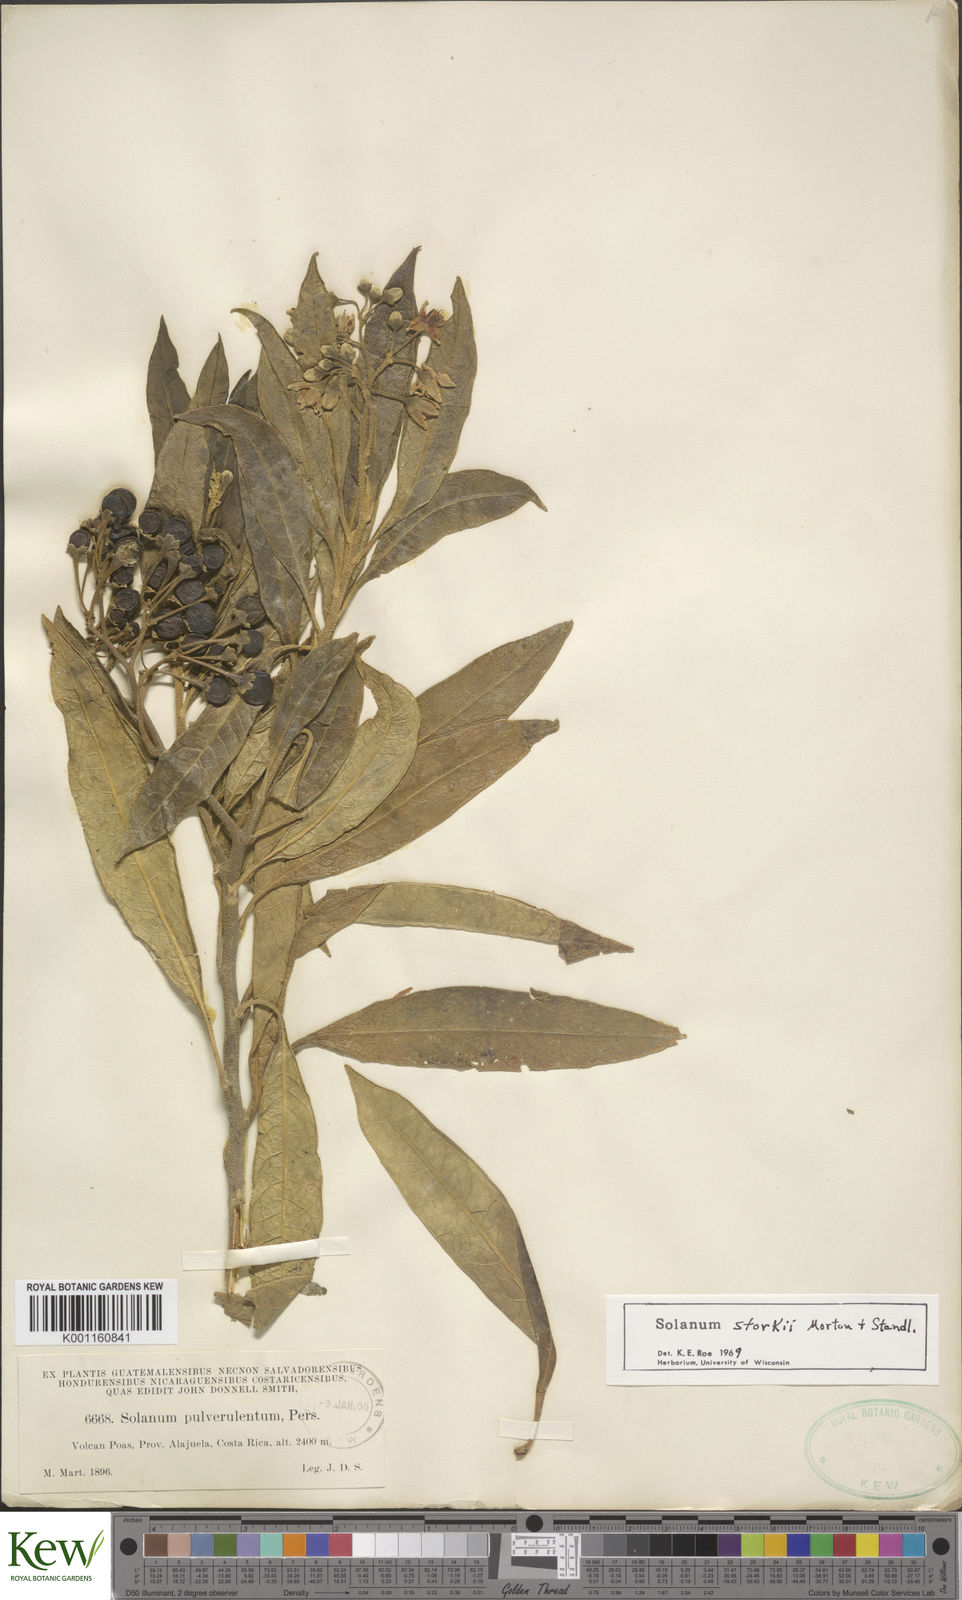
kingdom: Plantae
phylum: Tracheophyta
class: Magnoliopsida
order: Solanales
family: Solanaceae
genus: Solanum
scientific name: Solanum storkii
